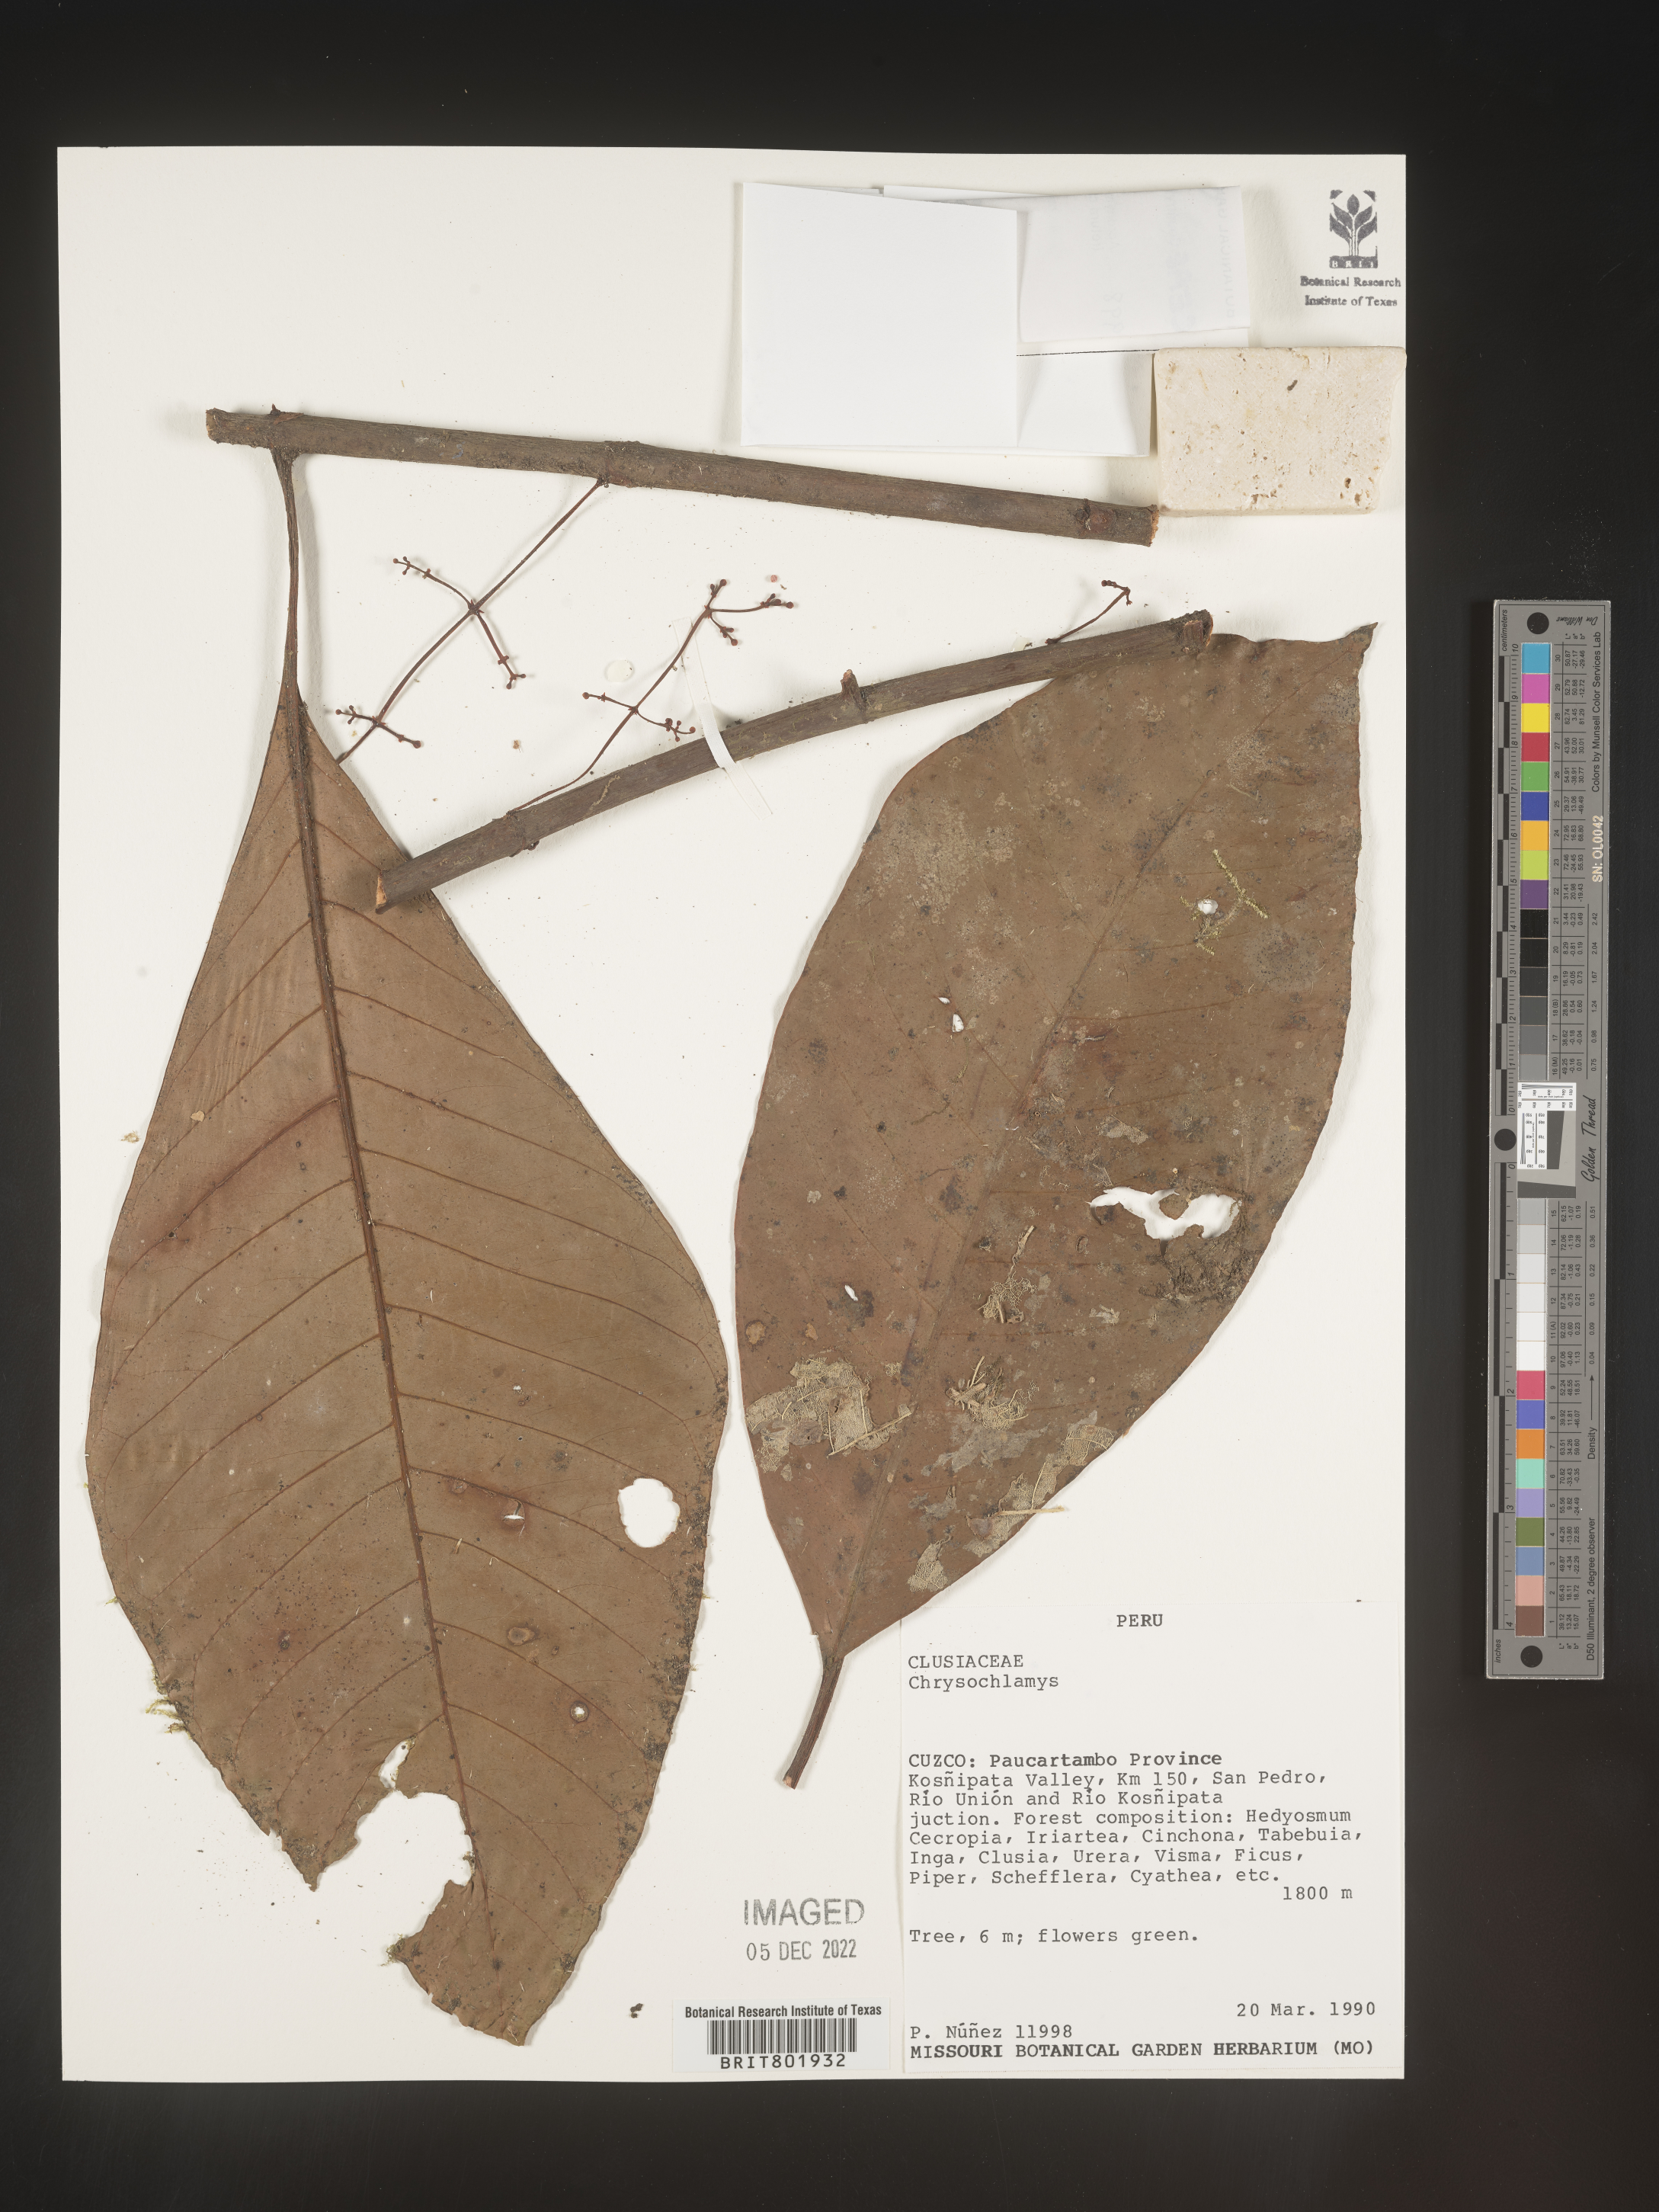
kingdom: Plantae
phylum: Tracheophyta
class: Magnoliopsida
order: Malpighiales
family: Clusiaceae
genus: Chrysochlamys
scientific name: Chrysochlamys
